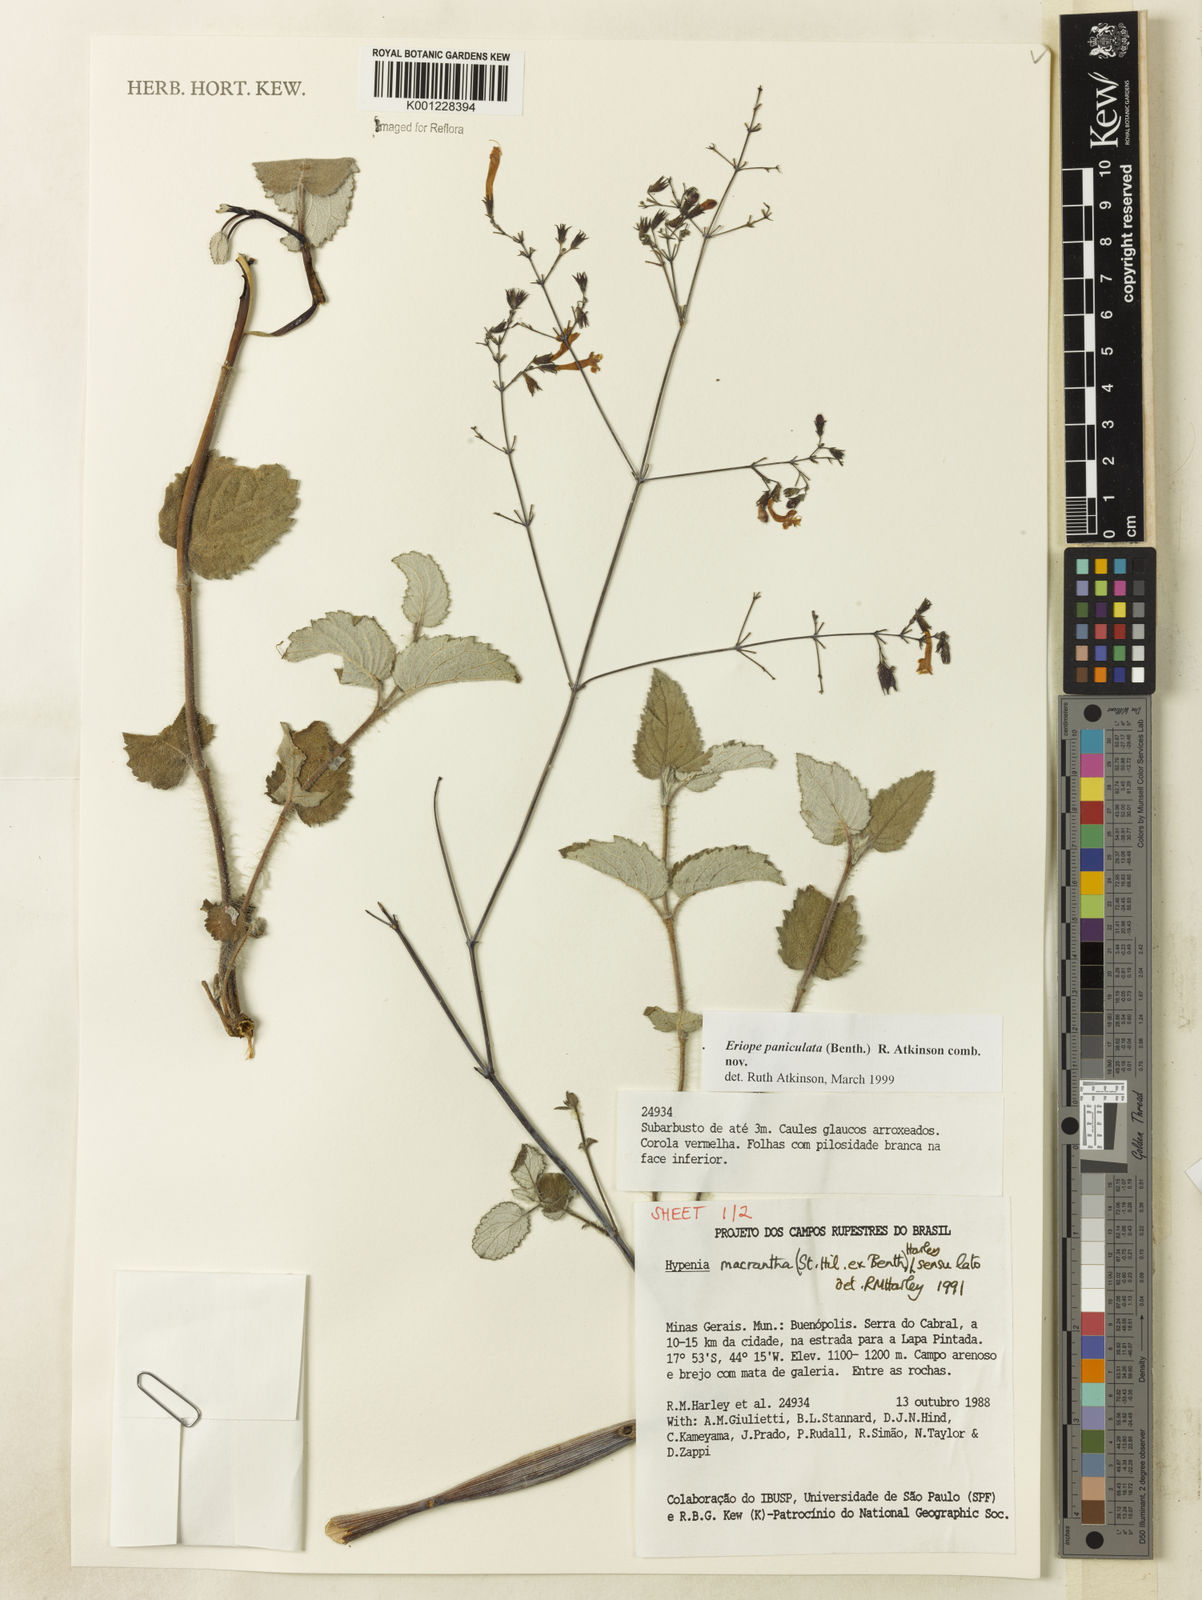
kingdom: Plantae
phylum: Tracheophyta
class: Magnoliopsida
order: Lamiales
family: Lamiaceae
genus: Hypenia
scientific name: Hypenia paniculata
